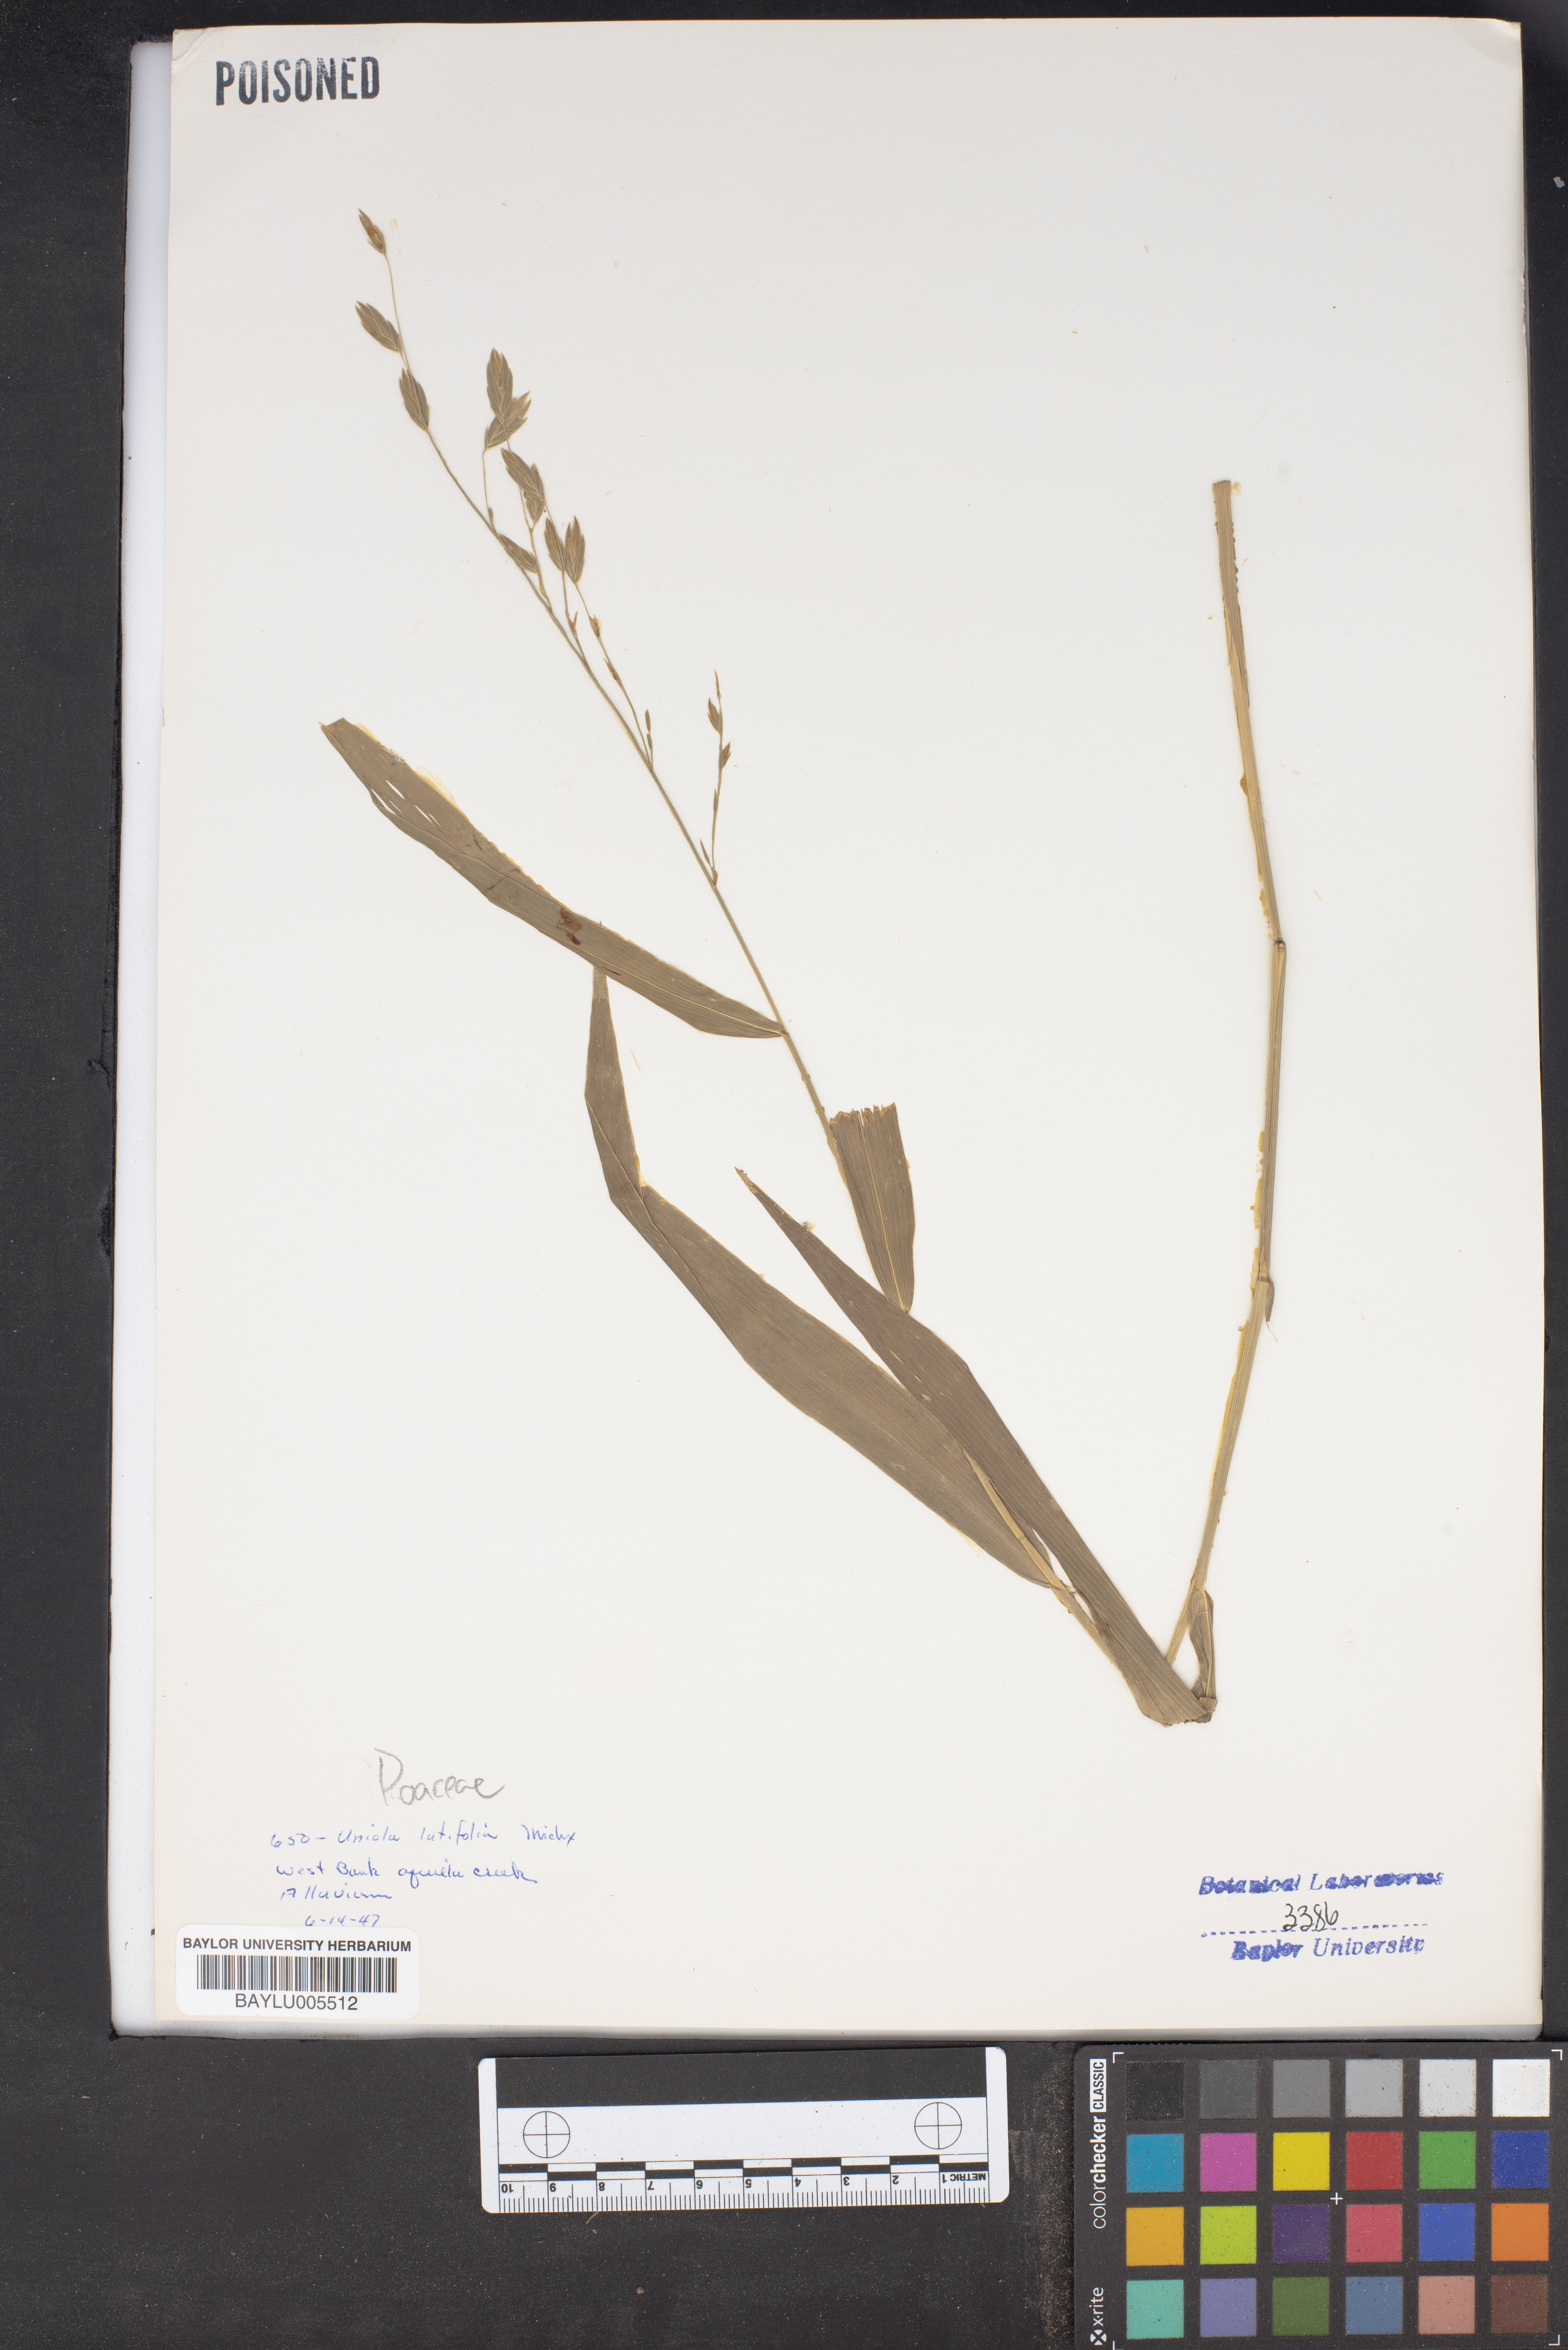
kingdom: Plantae
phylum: Tracheophyta
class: Liliopsida
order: Poales
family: Poaceae
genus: Chasmanthium
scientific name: Chasmanthium latifolium
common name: Broad-leaved chasmanthium
